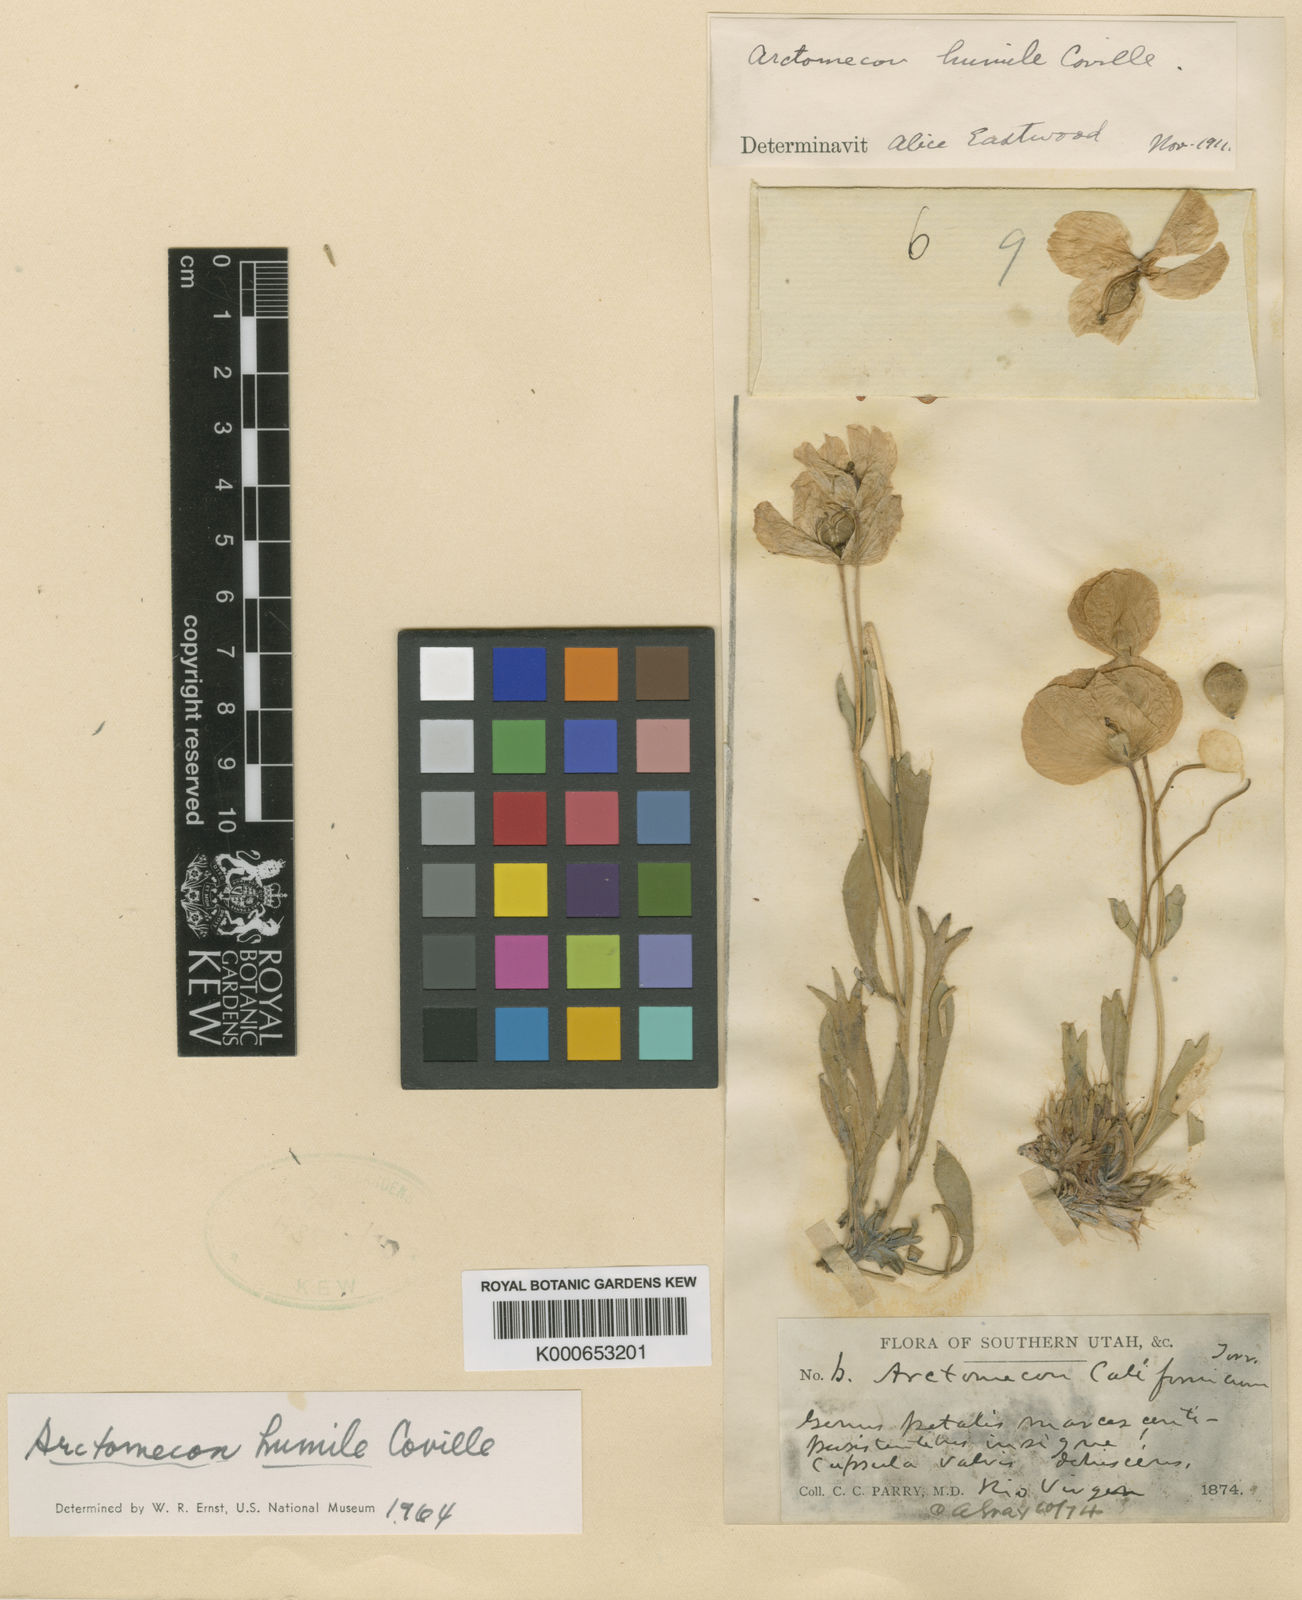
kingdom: Plantae
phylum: Tracheophyta
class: Magnoliopsida
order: Ranunculales
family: Papaveraceae
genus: Arctomecon
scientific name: Arctomecon humilis
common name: Dwarf bear-poppy
